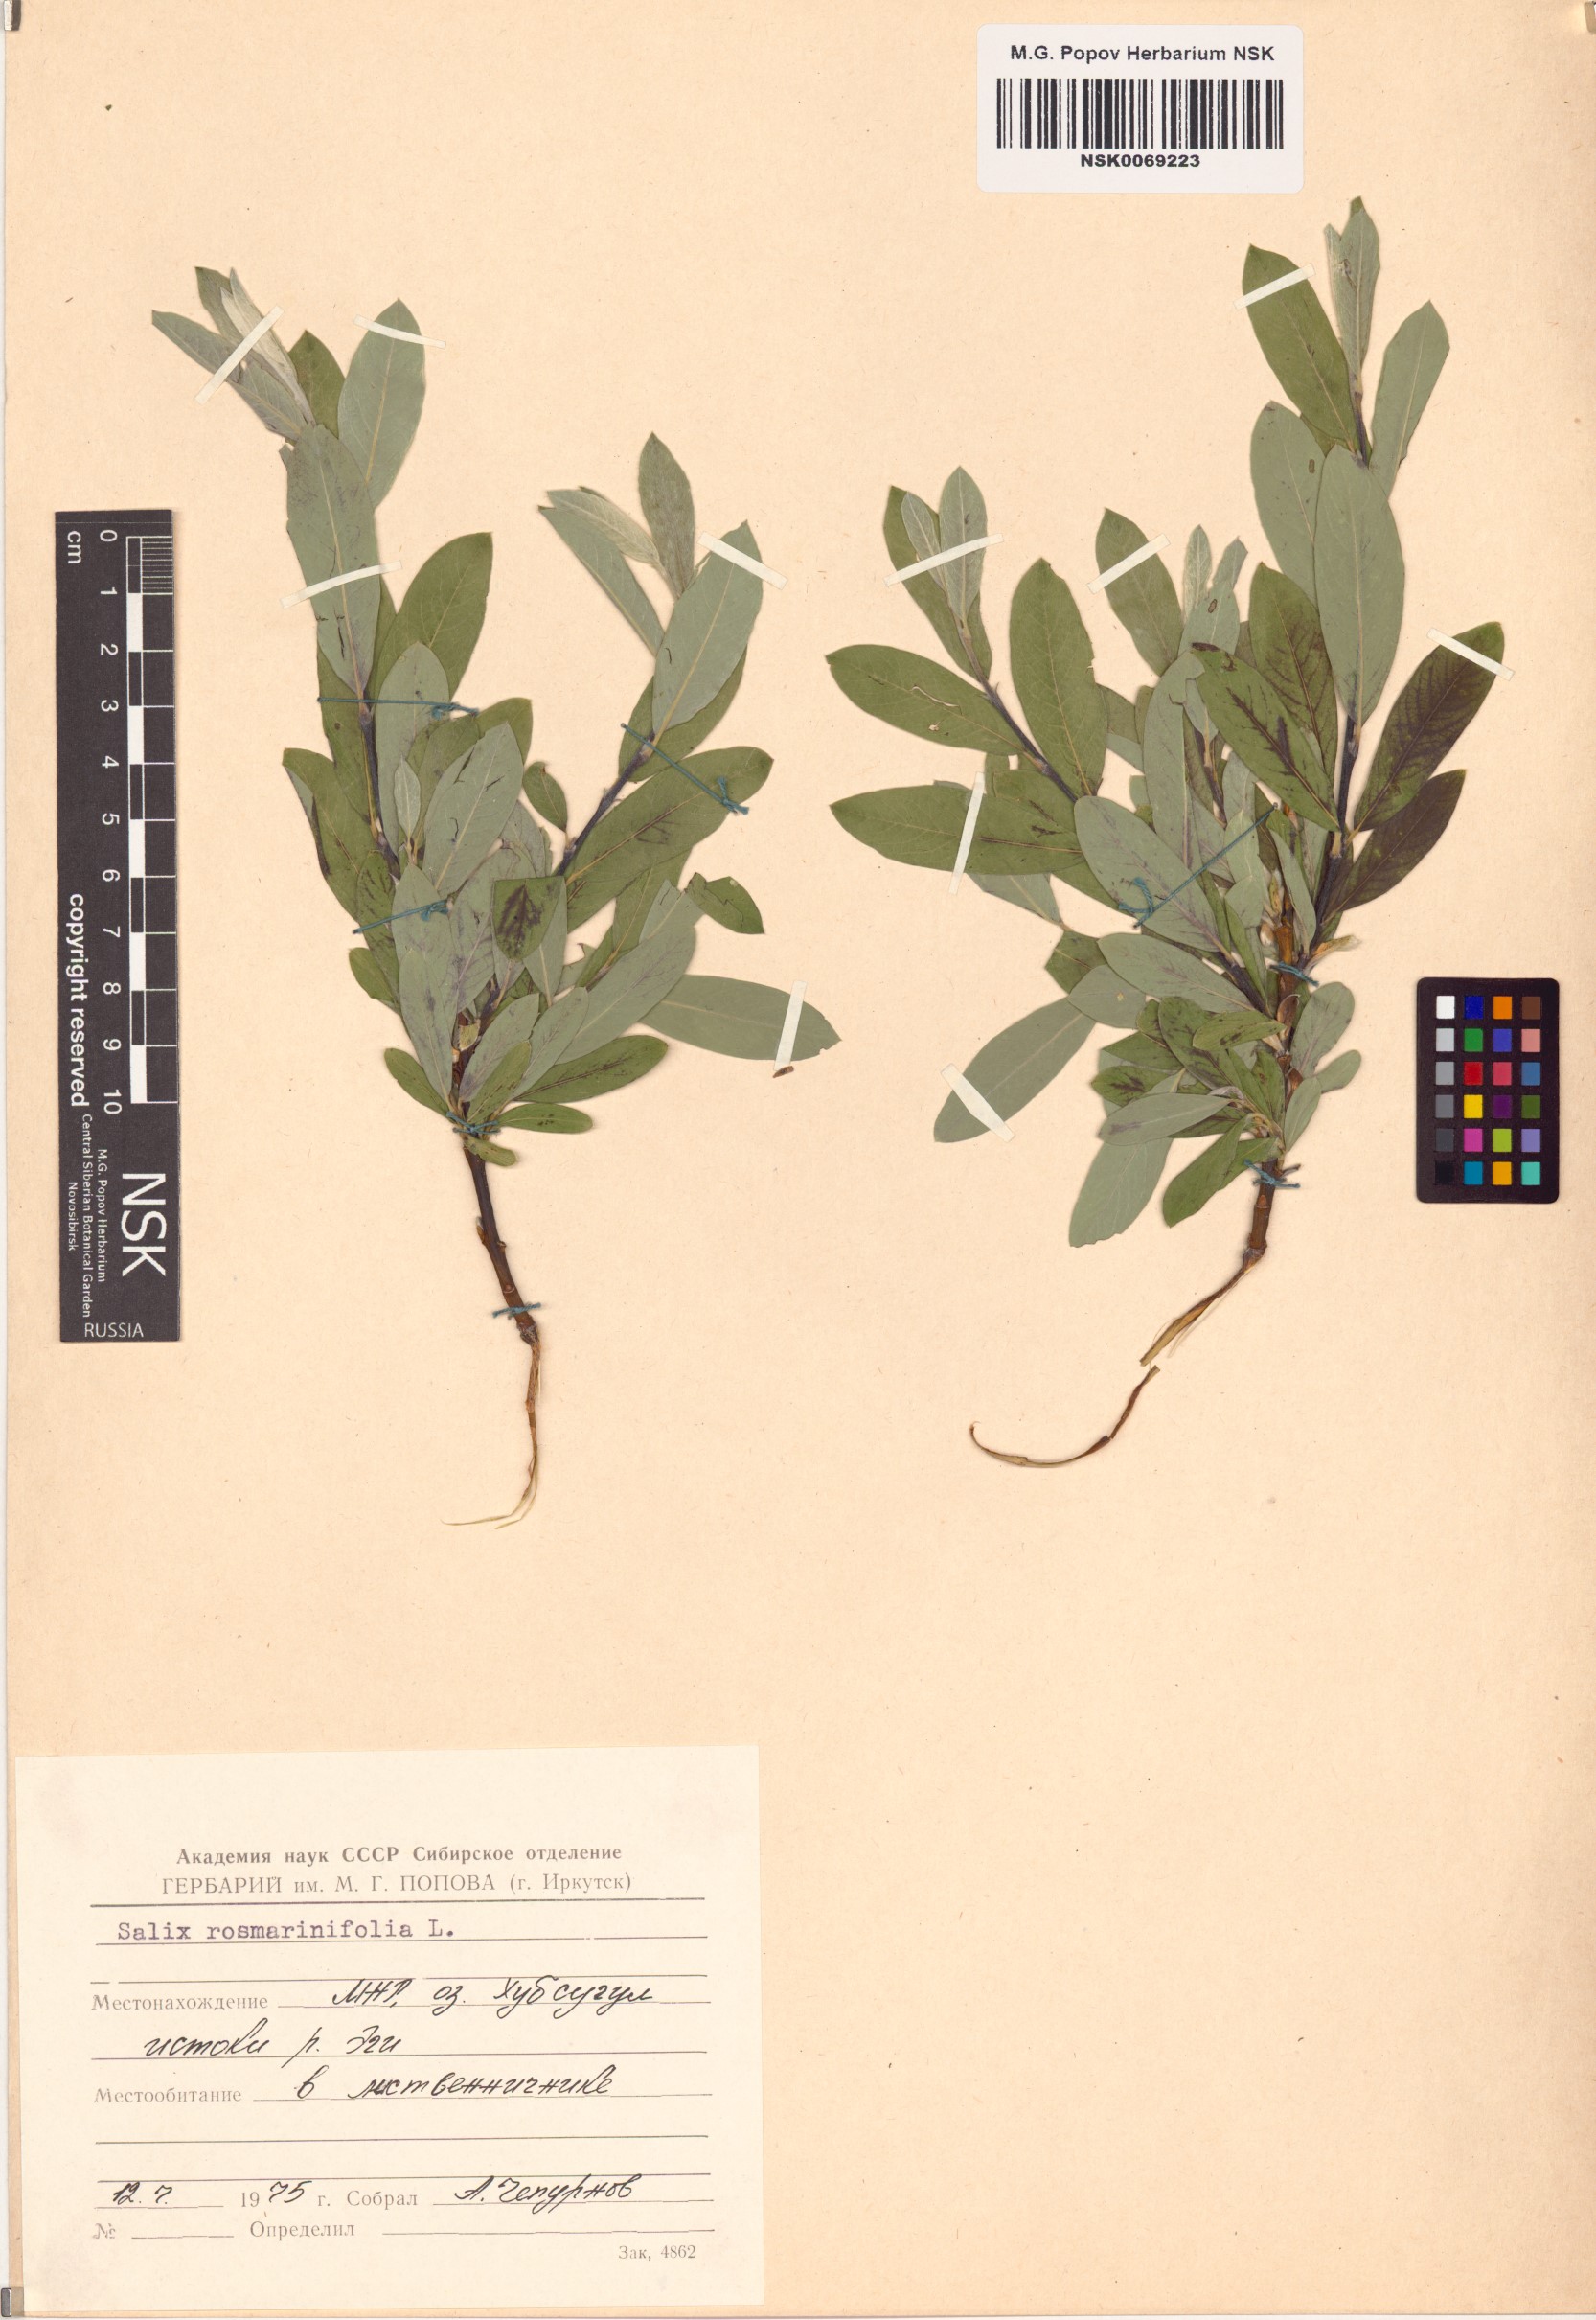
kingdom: Plantae
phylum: Tracheophyta
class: Magnoliopsida
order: Malpighiales
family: Salicaceae
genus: Salix
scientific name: Salix rosmarinifolia
